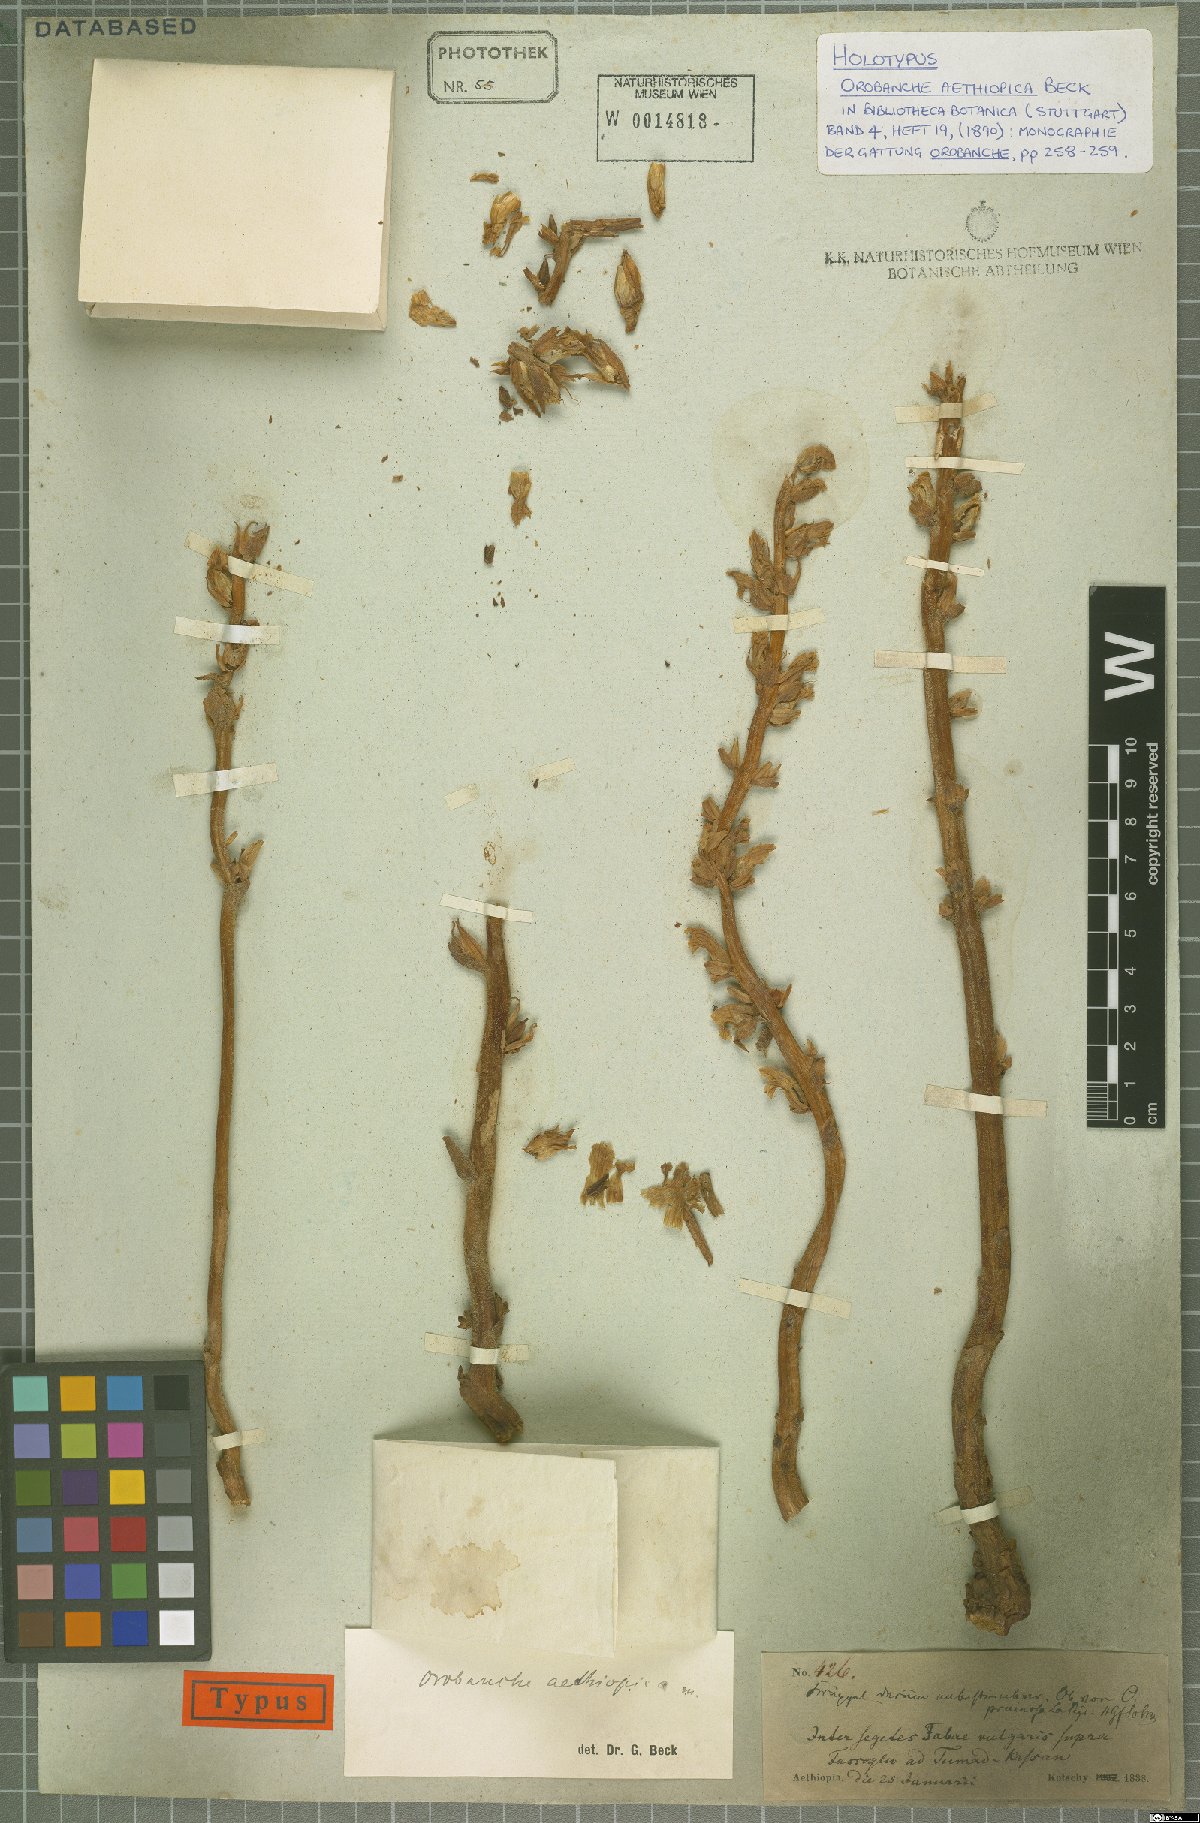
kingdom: Plantae
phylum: Tracheophyta
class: Magnoliopsida
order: Lamiales
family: Orobanchaceae
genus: Orobanche
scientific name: Orobanche aethiopica
